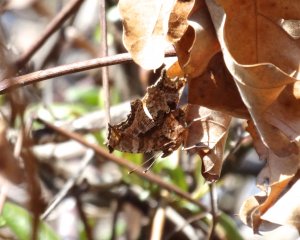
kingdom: Animalia
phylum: Arthropoda
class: Insecta
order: Lepidoptera
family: Nymphalidae
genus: Polygonia
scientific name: Polygonia comma
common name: Eastern Comma
